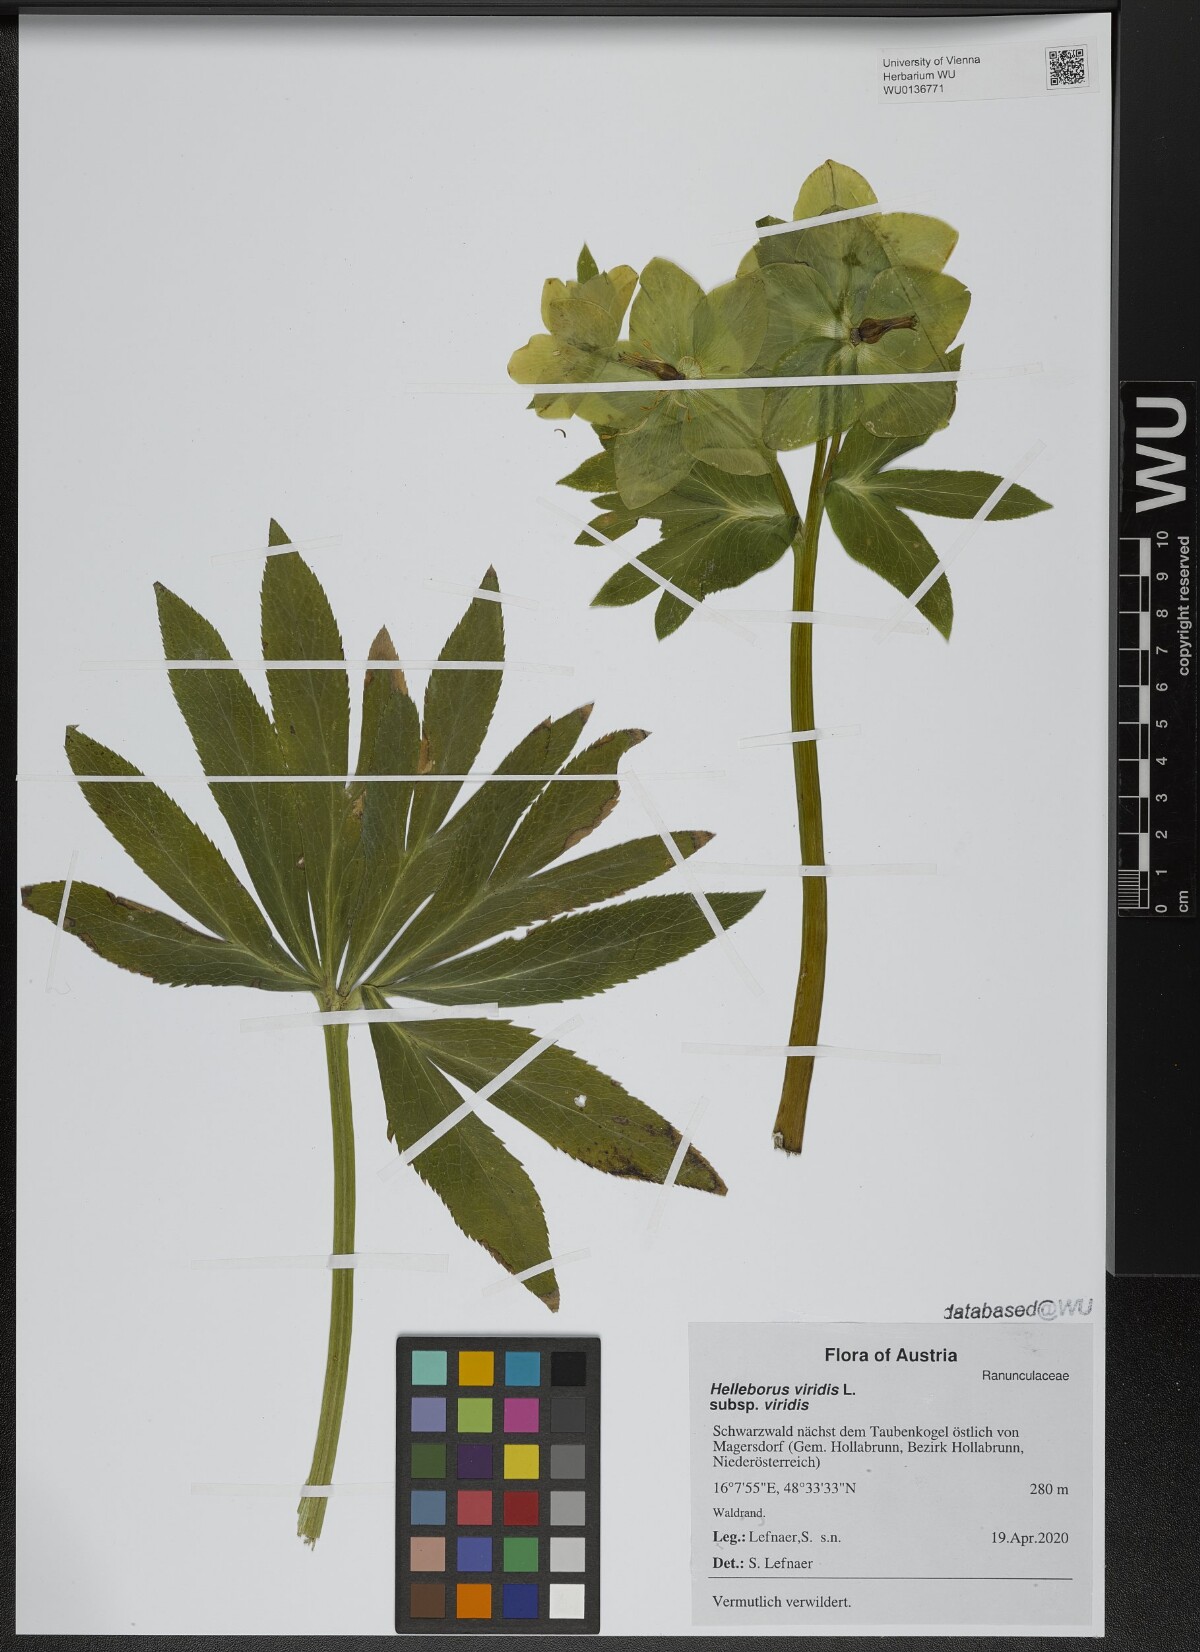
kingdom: Plantae
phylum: Tracheophyta
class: Magnoliopsida
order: Ranunculales
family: Ranunculaceae
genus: Helleborus
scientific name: Helleborus viridis
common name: Green hellebore
